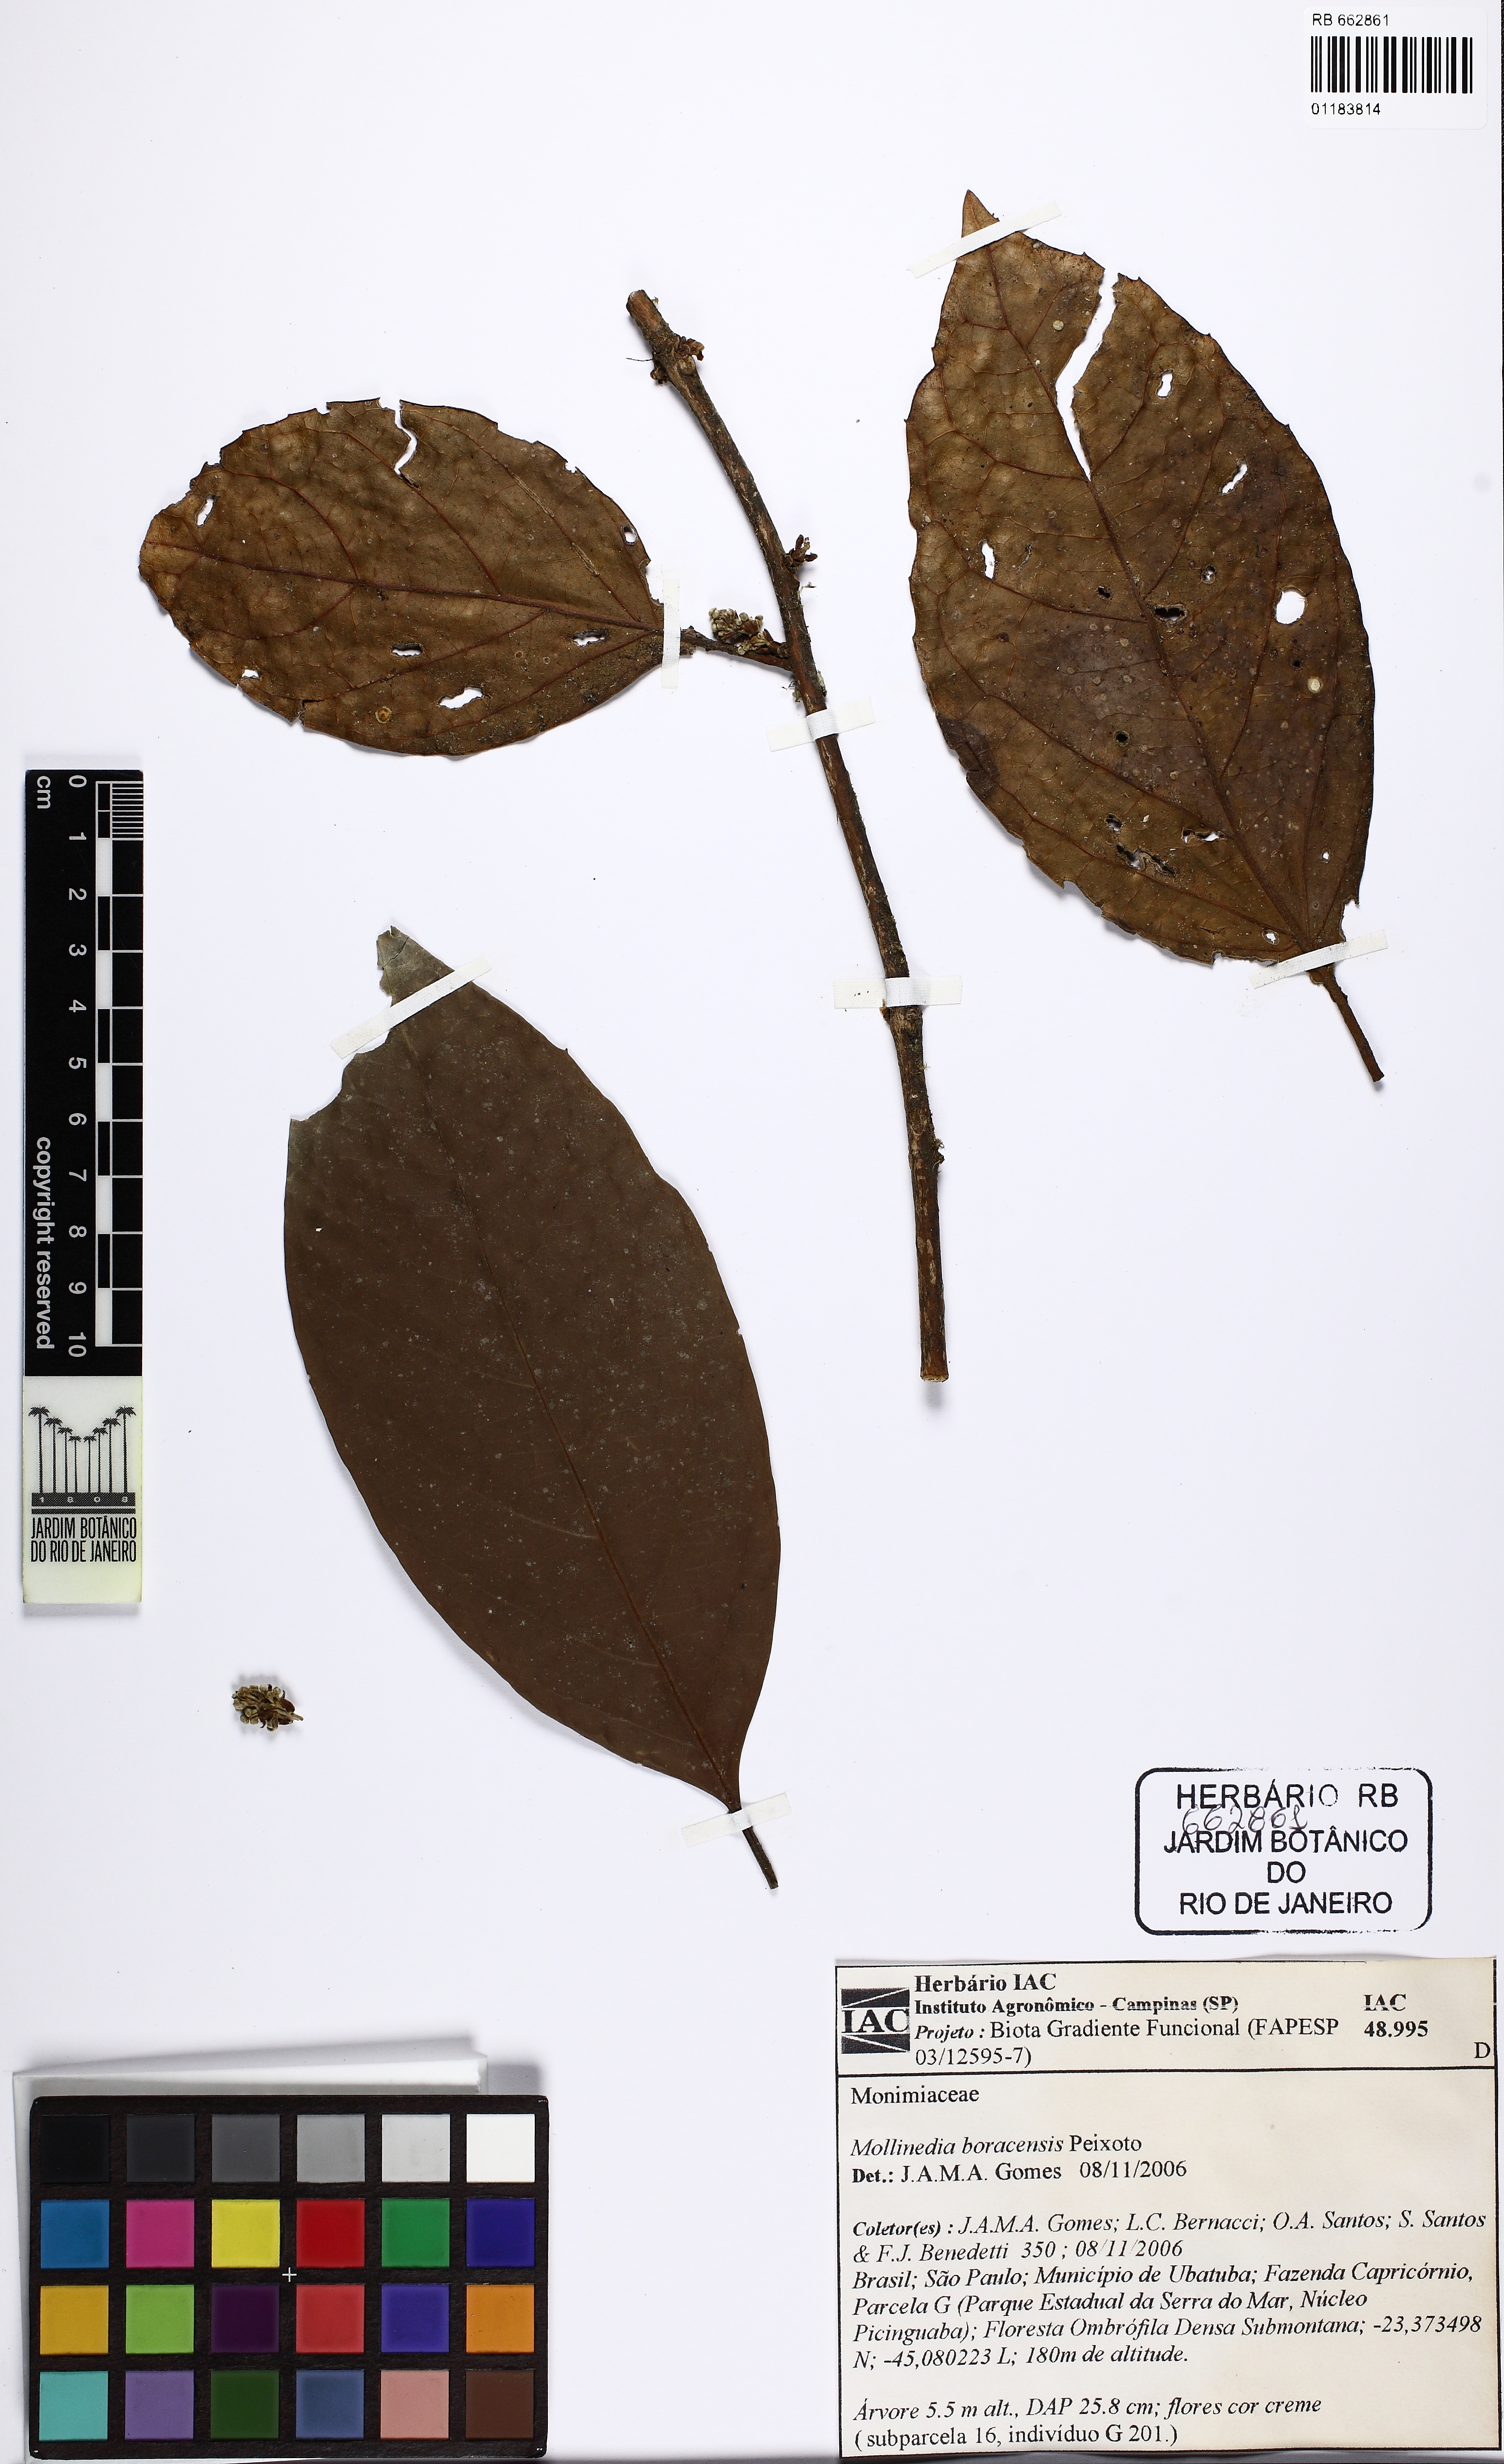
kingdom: Plantae
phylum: Tracheophyta
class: Magnoliopsida
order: Laurales
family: Monimiaceae
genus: Mollinedia
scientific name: Mollinedia gilgiana
